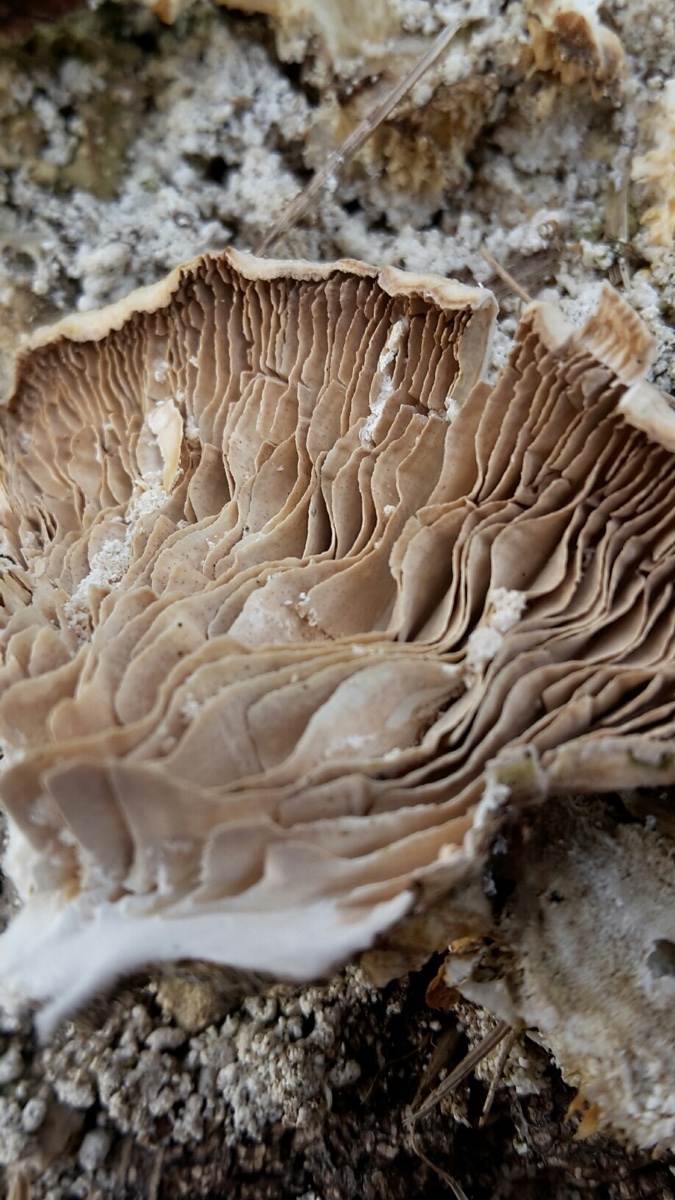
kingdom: Fungi
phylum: Basidiomycota
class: Agaricomycetes
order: Polyporales
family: Polyporaceae
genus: Lenzites
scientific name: Lenzites betulinus
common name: birke-læderporesvamp
